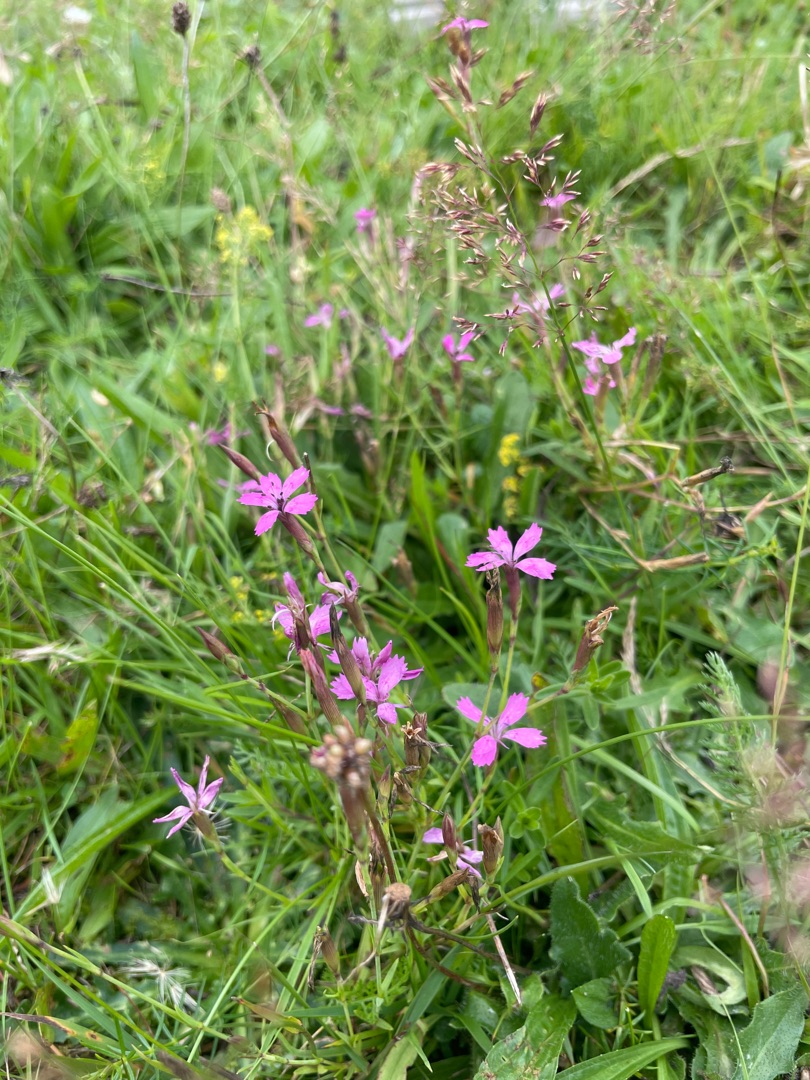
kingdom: Plantae
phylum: Tracheophyta
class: Magnoliopsida
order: Caryophyllales
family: Caryophyllaceae
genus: Dianthus
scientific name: Dianthus deltoides
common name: Bakke-nellike
